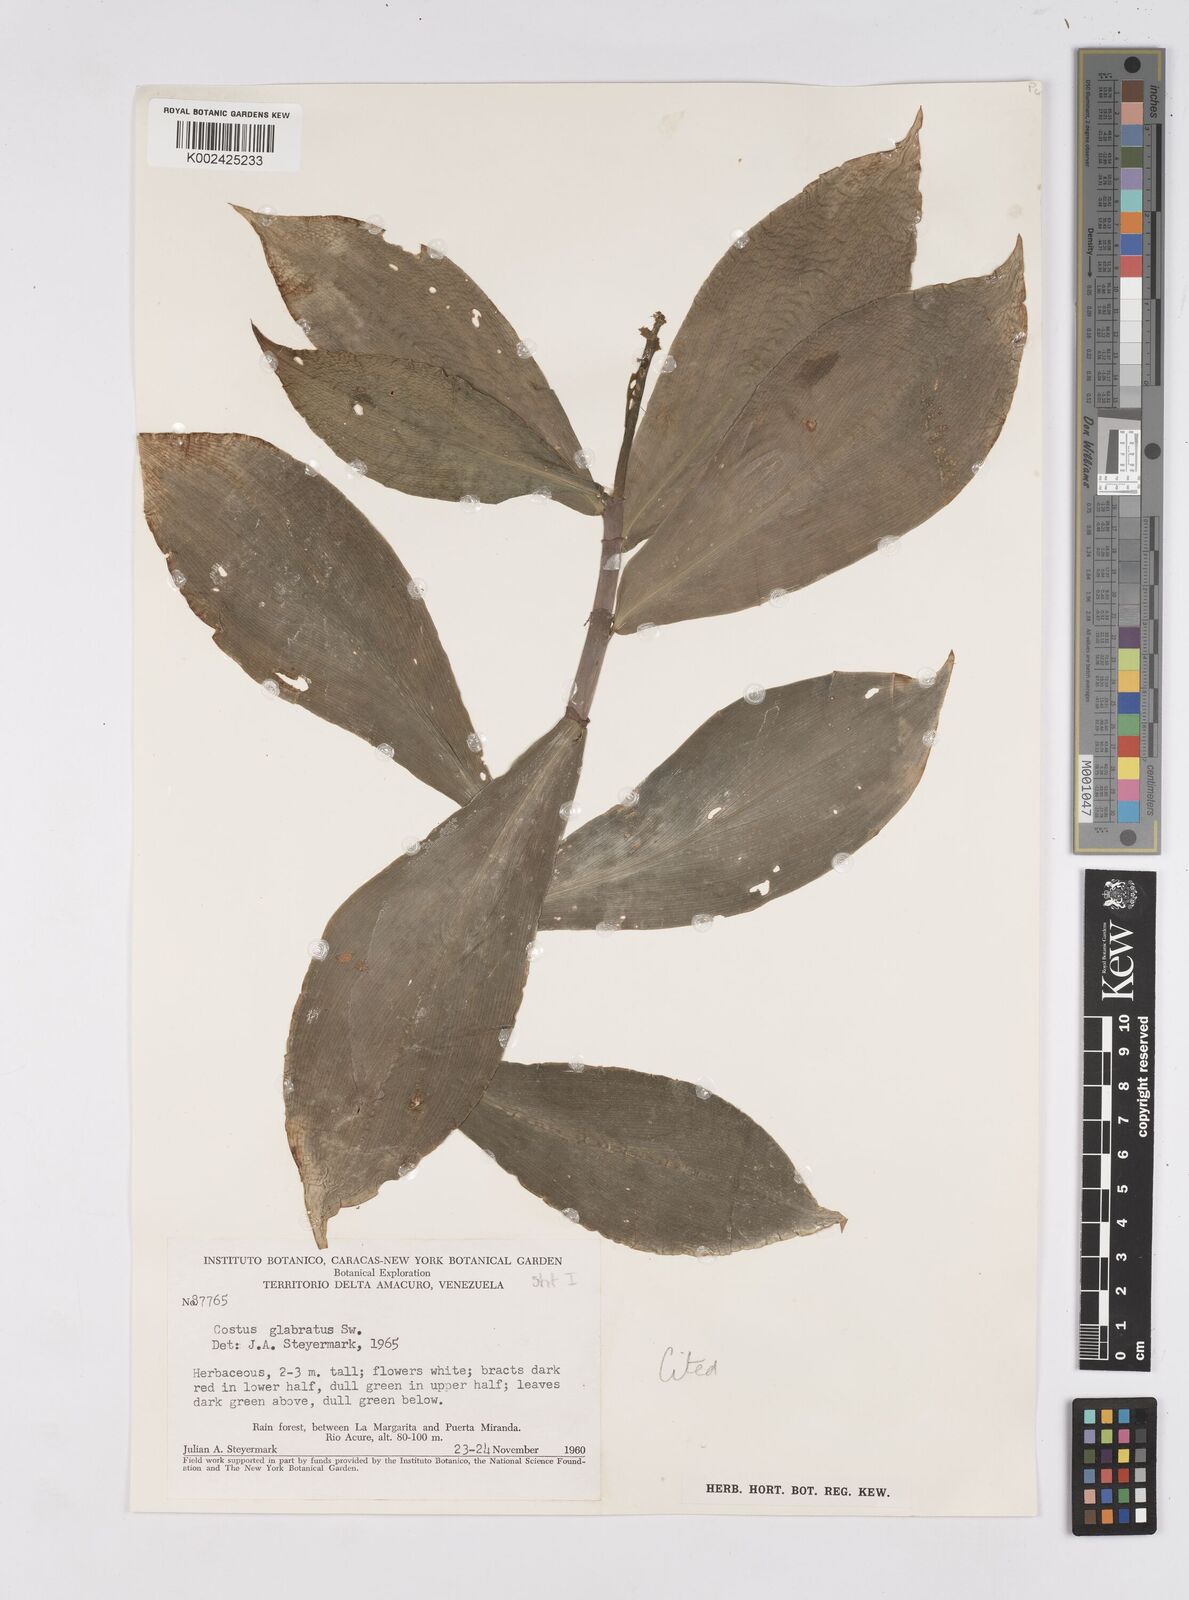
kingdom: Plantae
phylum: Tracheophyta
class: Liliopsida
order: Zingiberales
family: Costaceae
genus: Costus
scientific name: Costus arabicus
